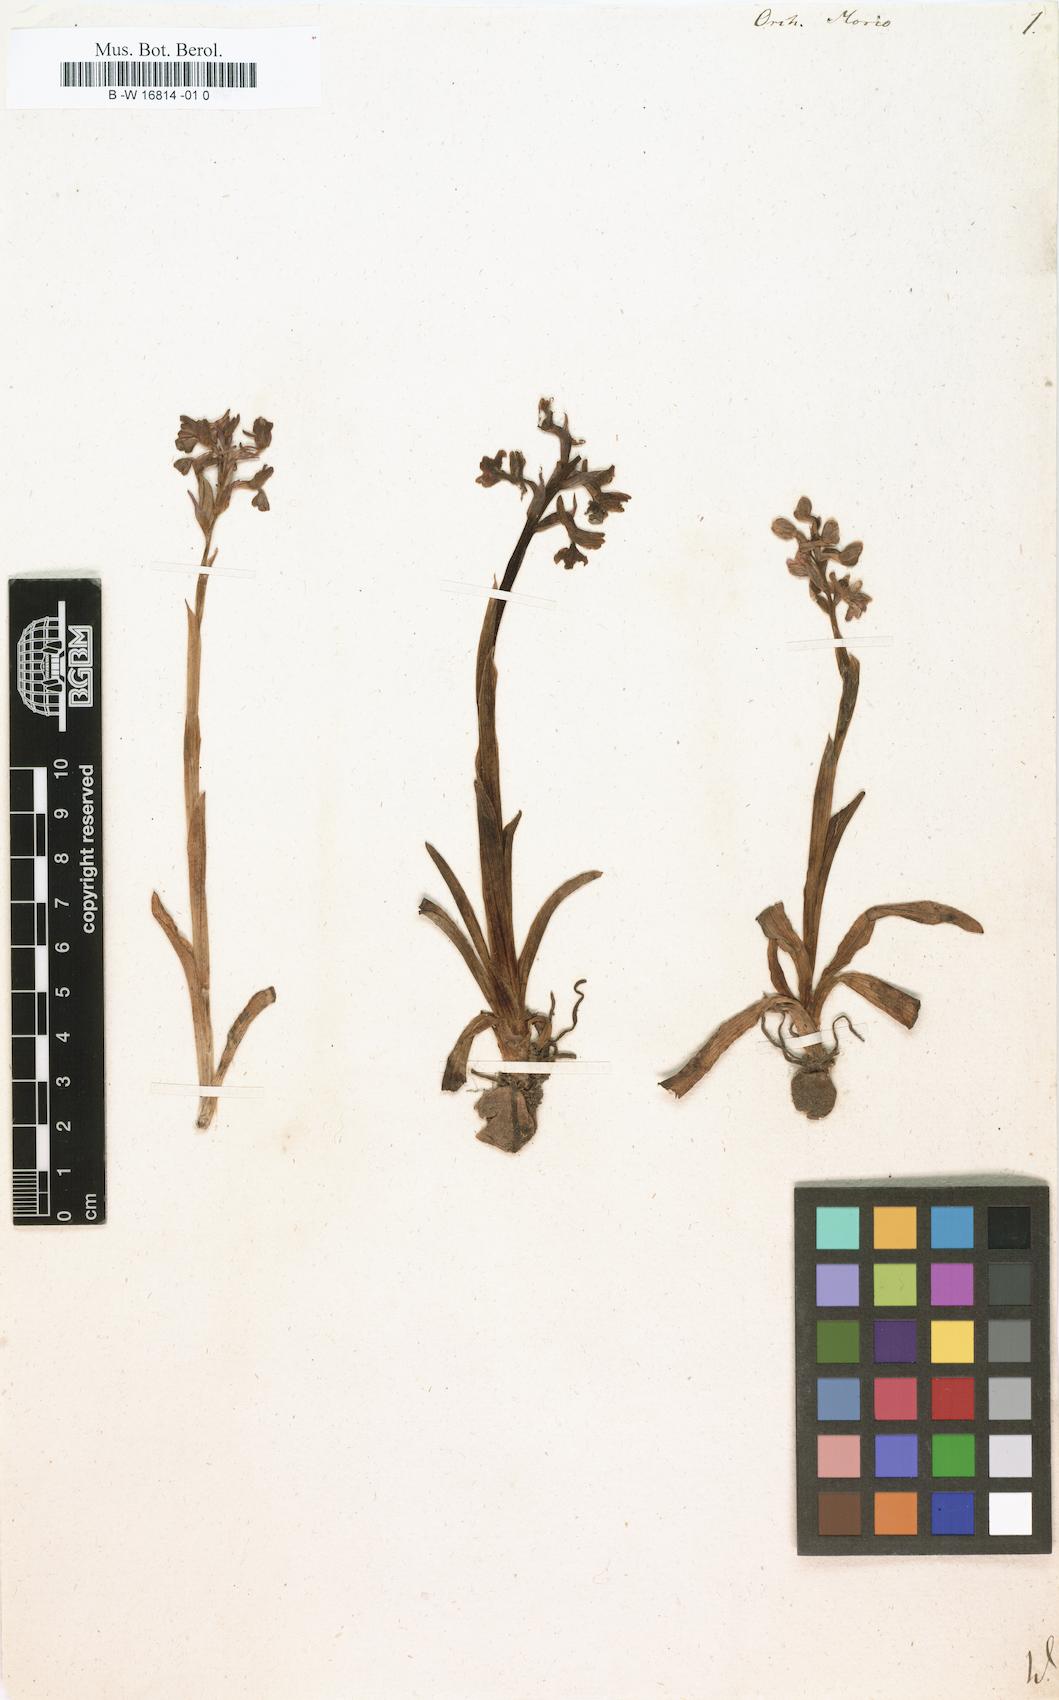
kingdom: Plantae
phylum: Tracheophyta
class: Liliopsida
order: Asparagales
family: Orchidaceae
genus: Anacamptis
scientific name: Anacamptis morio
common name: Green-winged orchid
